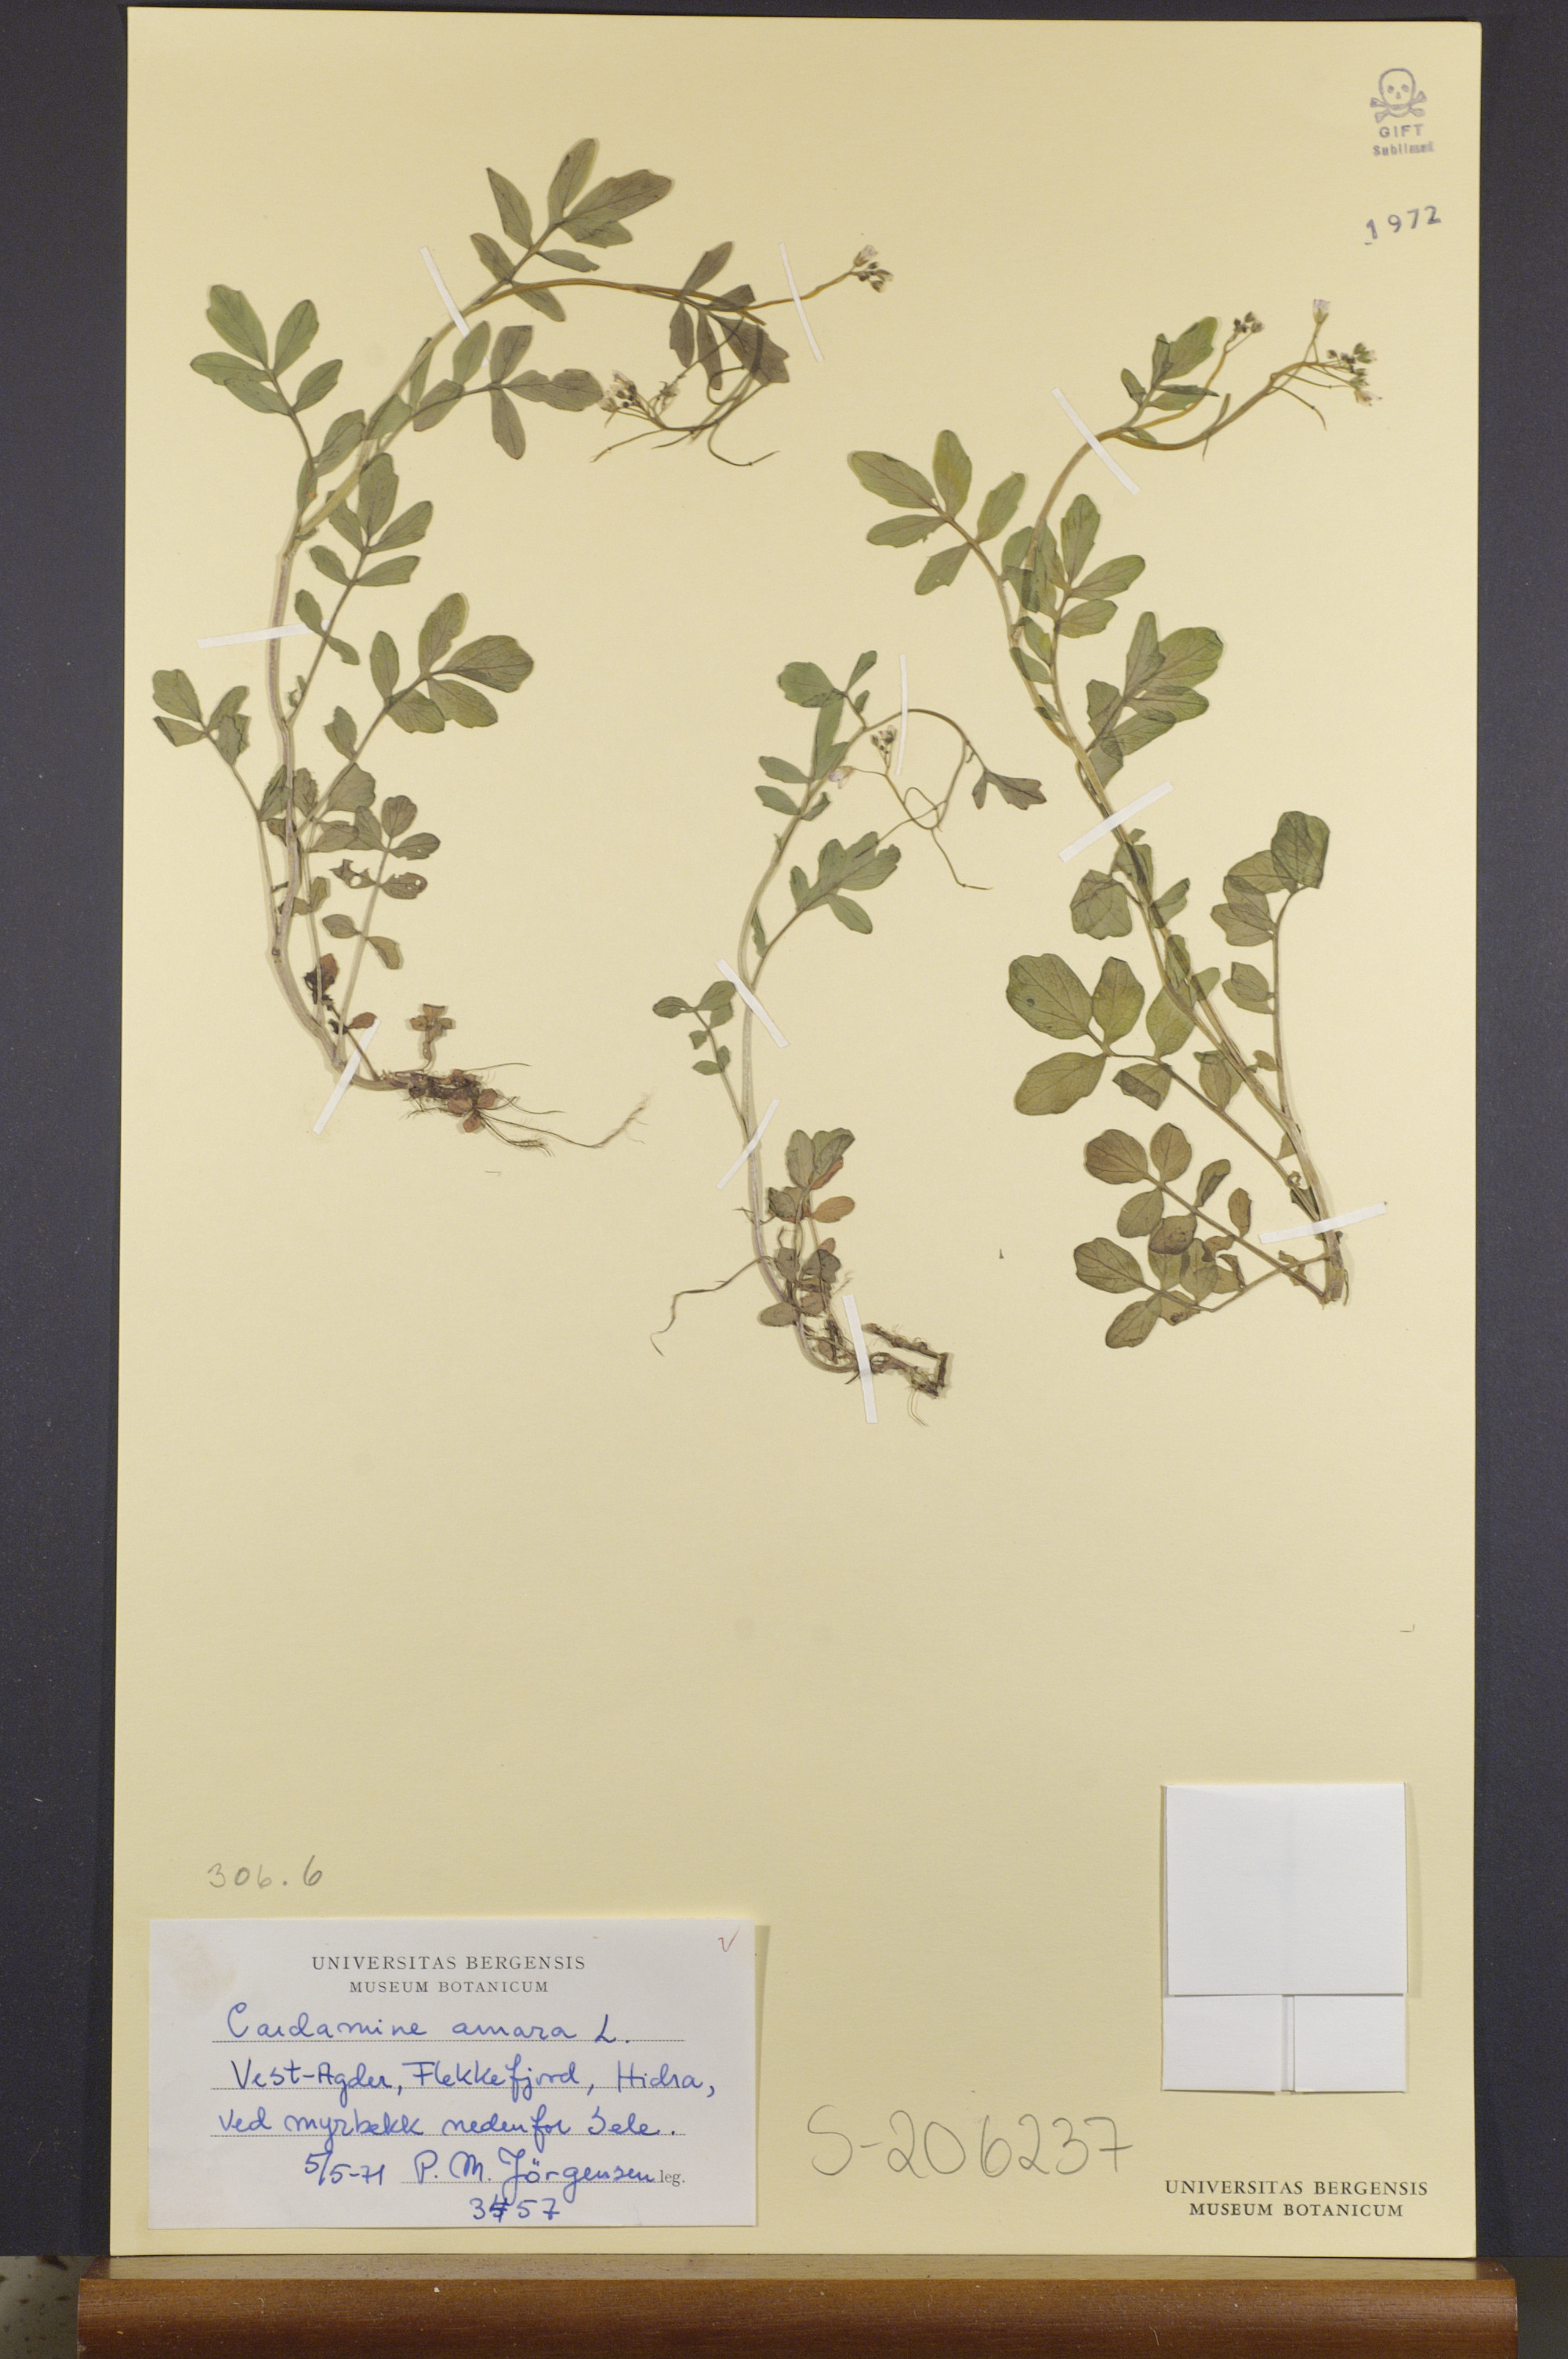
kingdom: Plantae
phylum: Tracheophyta
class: Magnoliopsida
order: Brassicales
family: Brassicaceae
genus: Cardamine
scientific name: Cardamine amara
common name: Large bitter-cress
